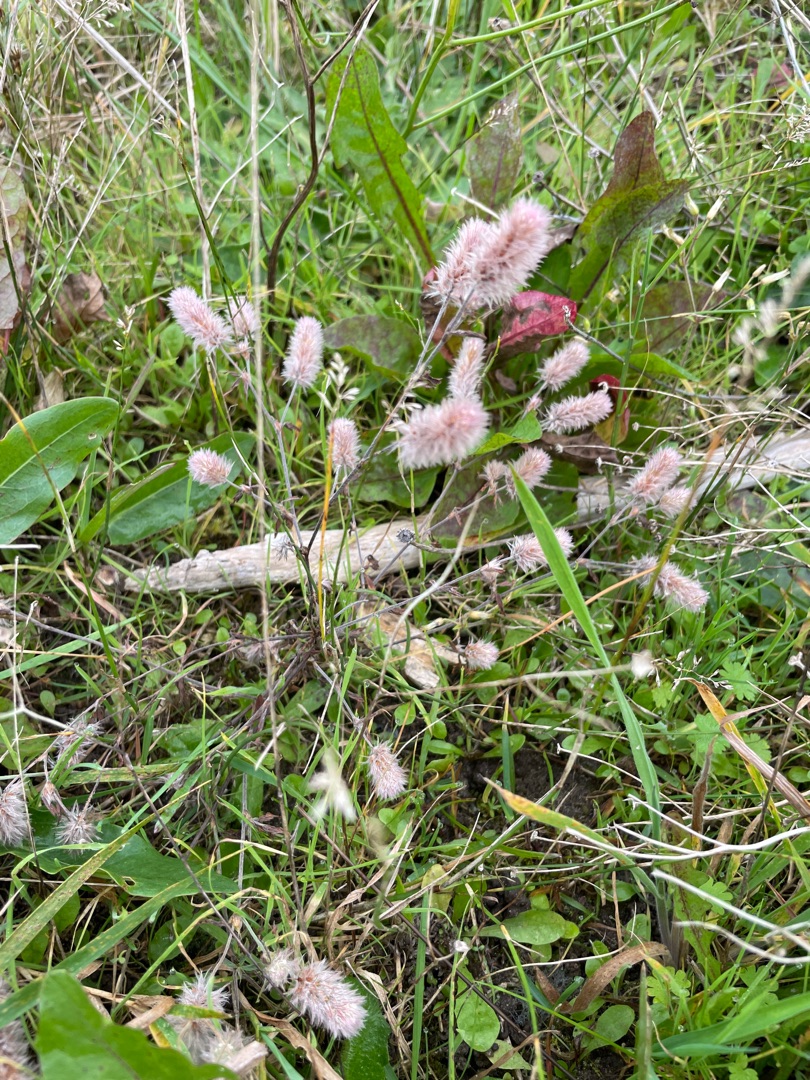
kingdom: Plantae
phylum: Tracheophyta
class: Magnoliopsida
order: Fabales
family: Fabaceae
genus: Trifolium
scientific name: Trifolium arvense
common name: Hare-kløver
